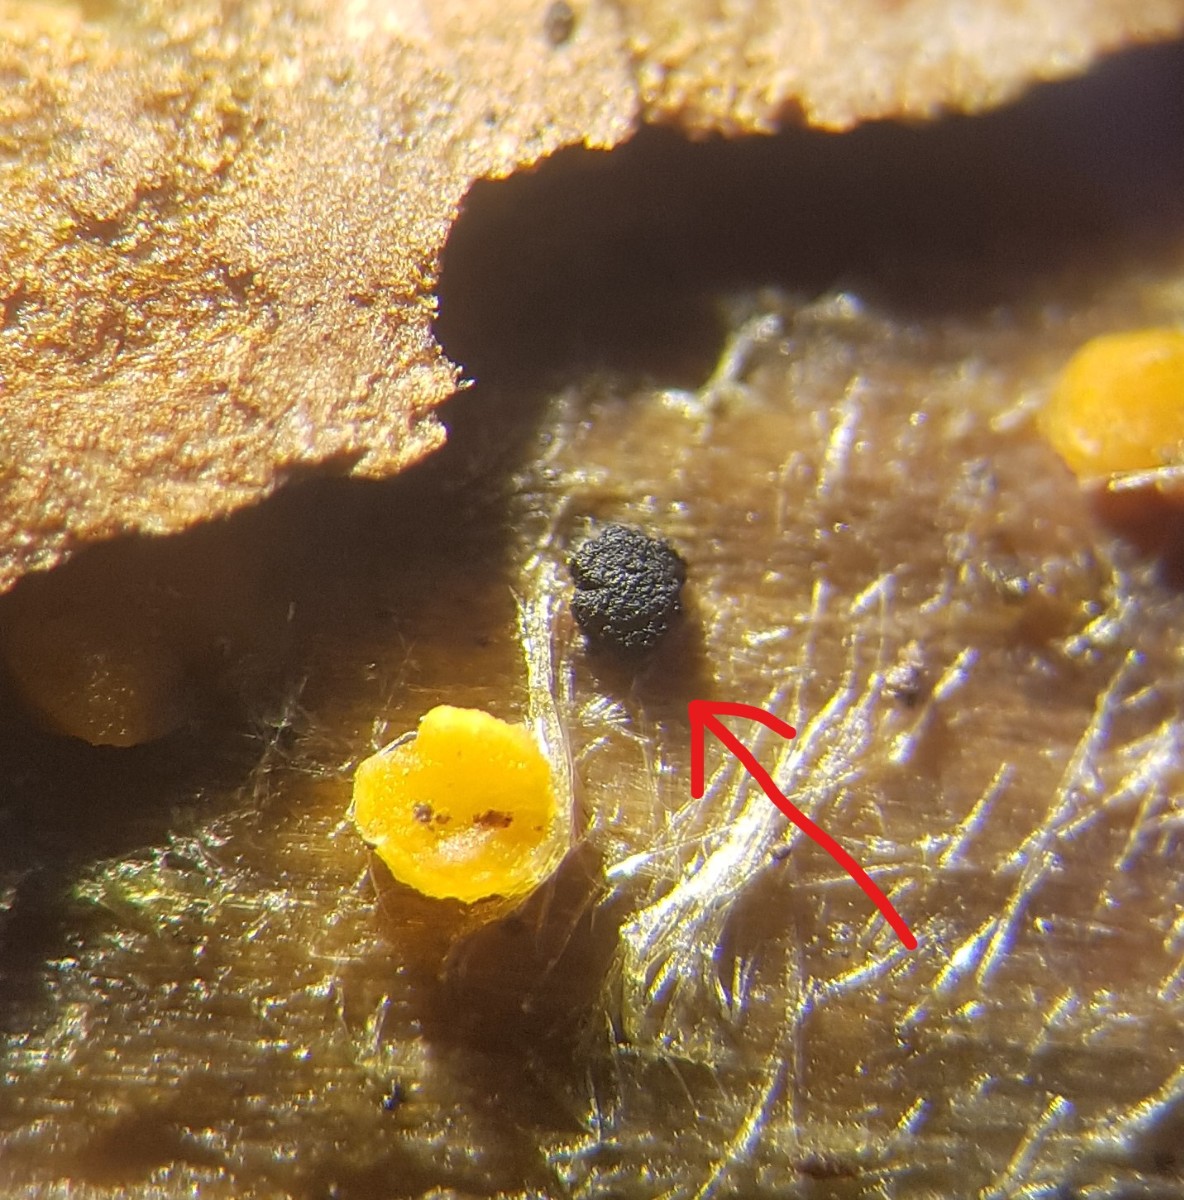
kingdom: Fungi
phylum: Ascomycota
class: Leotiomycetes
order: Leotiales
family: Tympanidaceae
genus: Vexillomyces
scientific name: Vexillomyces atrovirens
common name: sortgrøn linseskive
